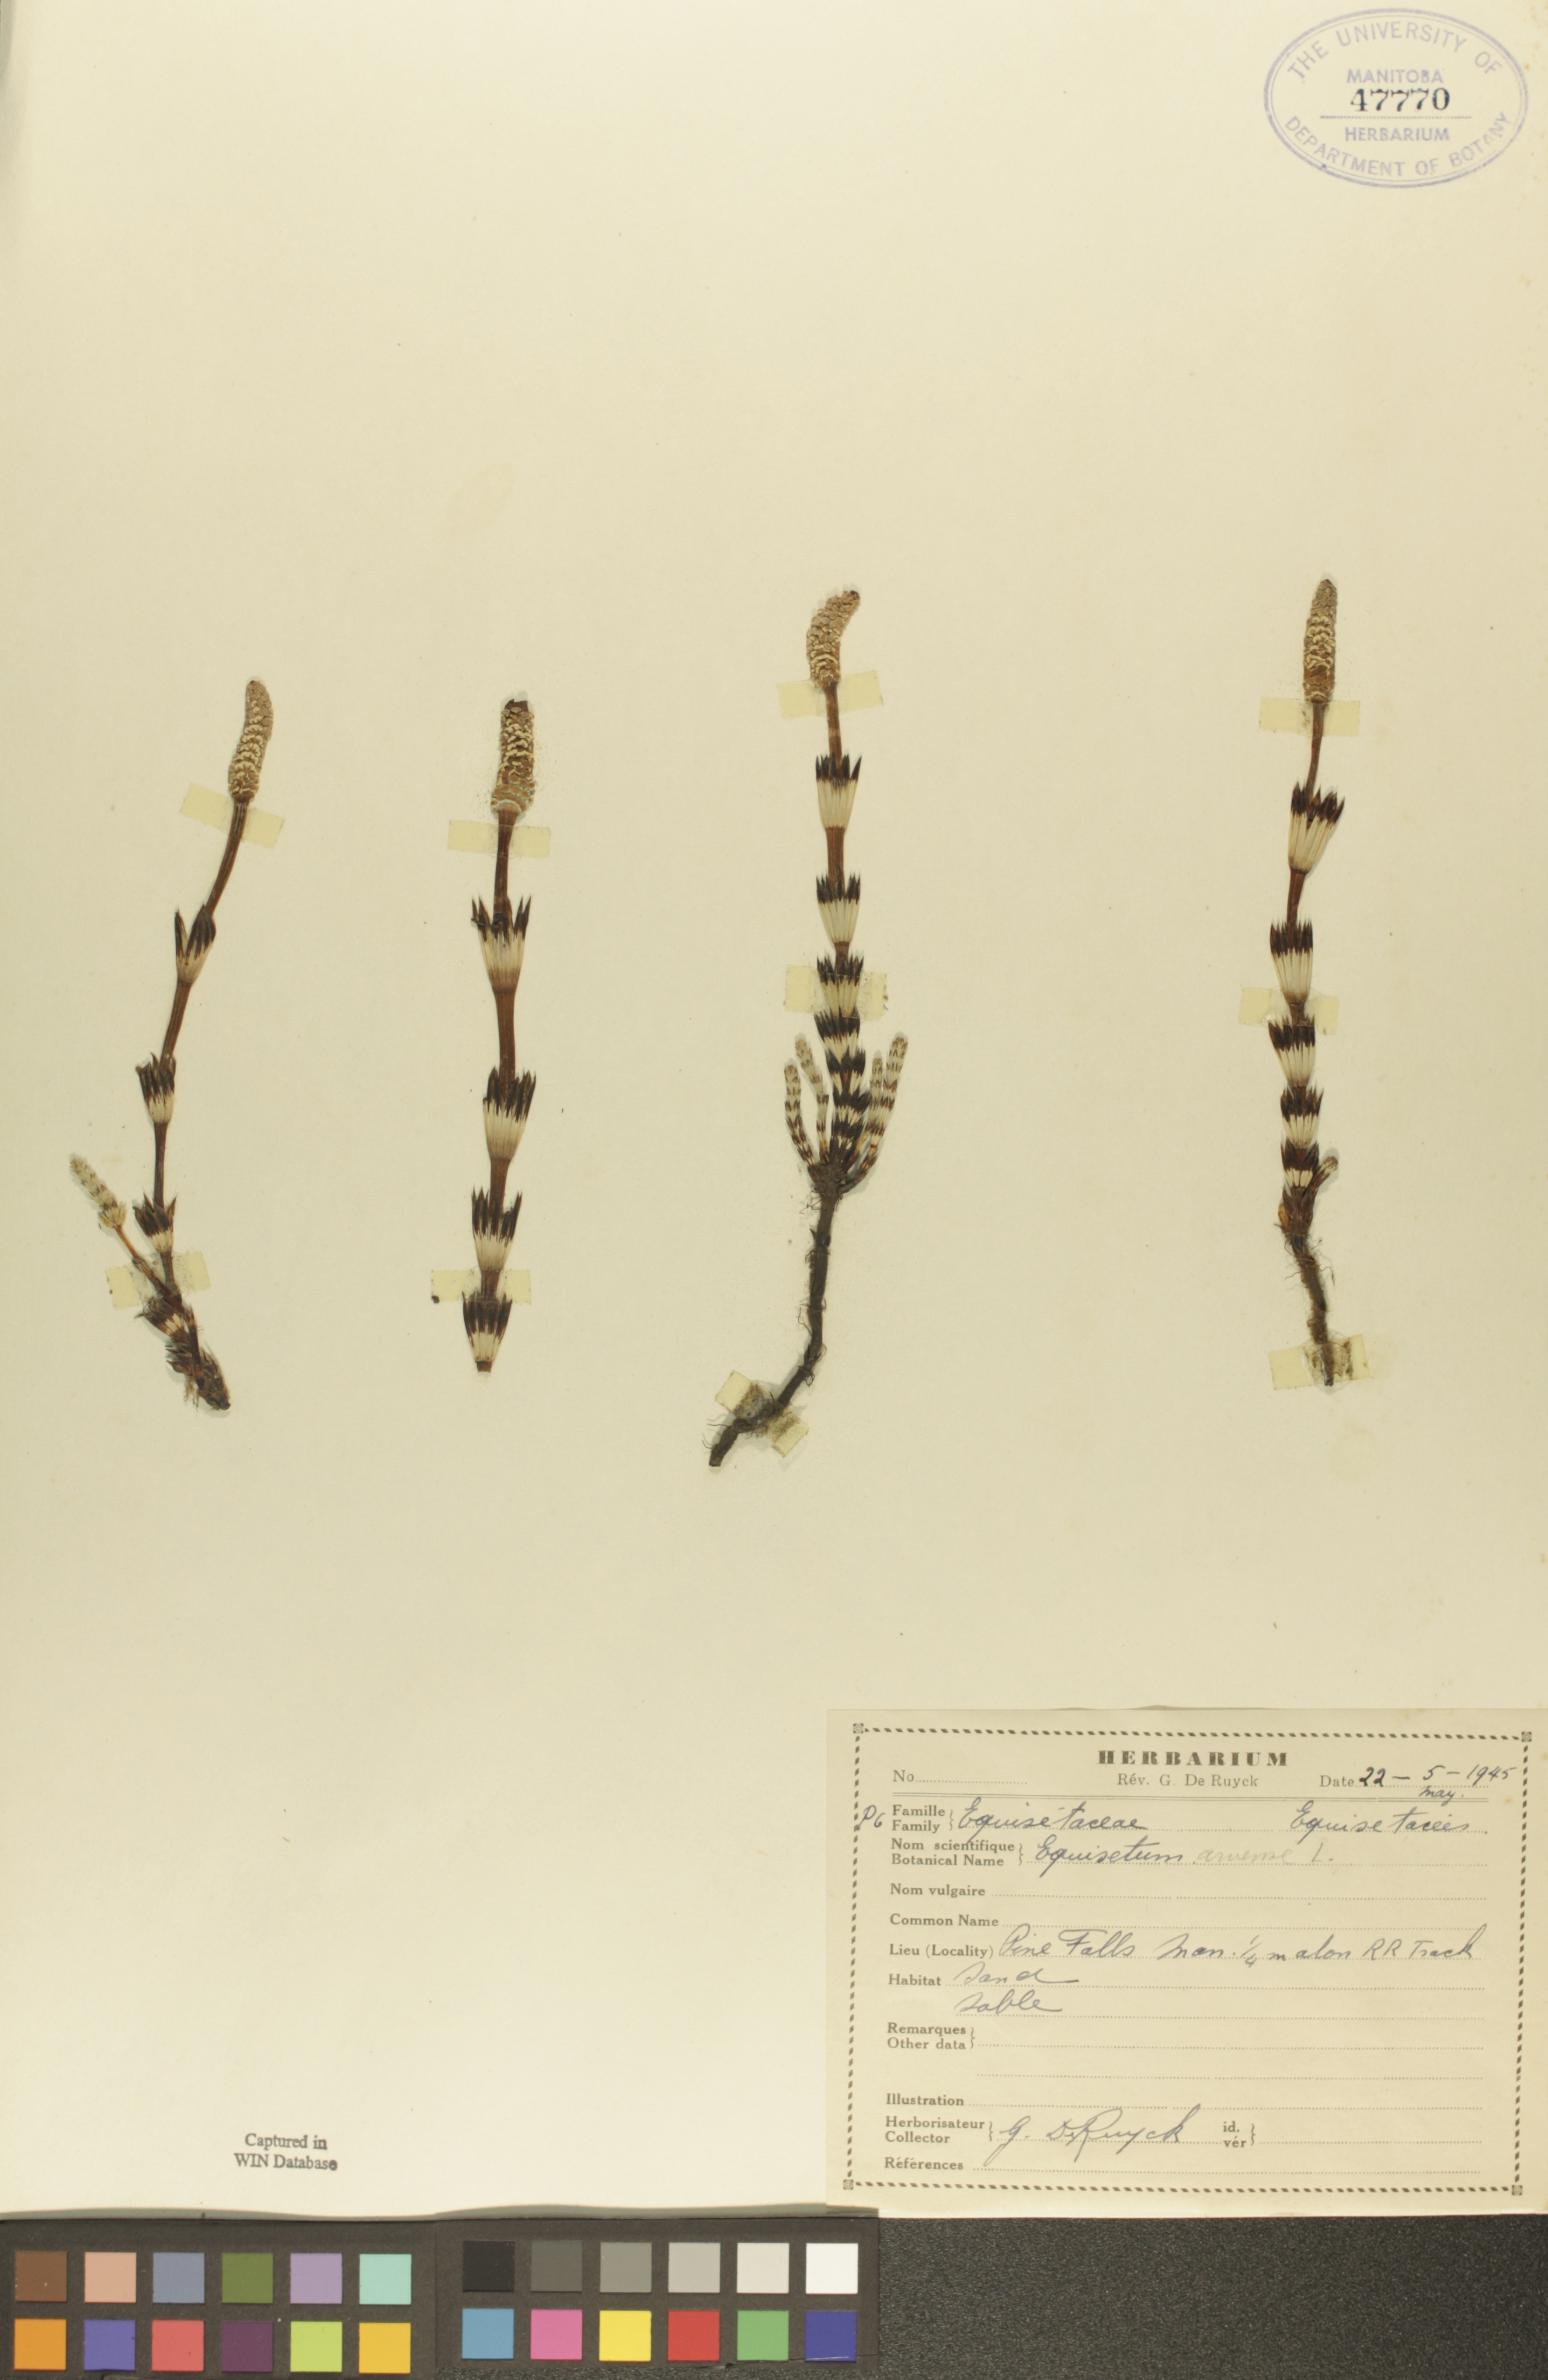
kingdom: Plantae
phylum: Tracheophyta
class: Polypodiopsida
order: Equisetales
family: Equisetaceae
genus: Equisetum
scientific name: Equisetum arvense
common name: Field horsetail
